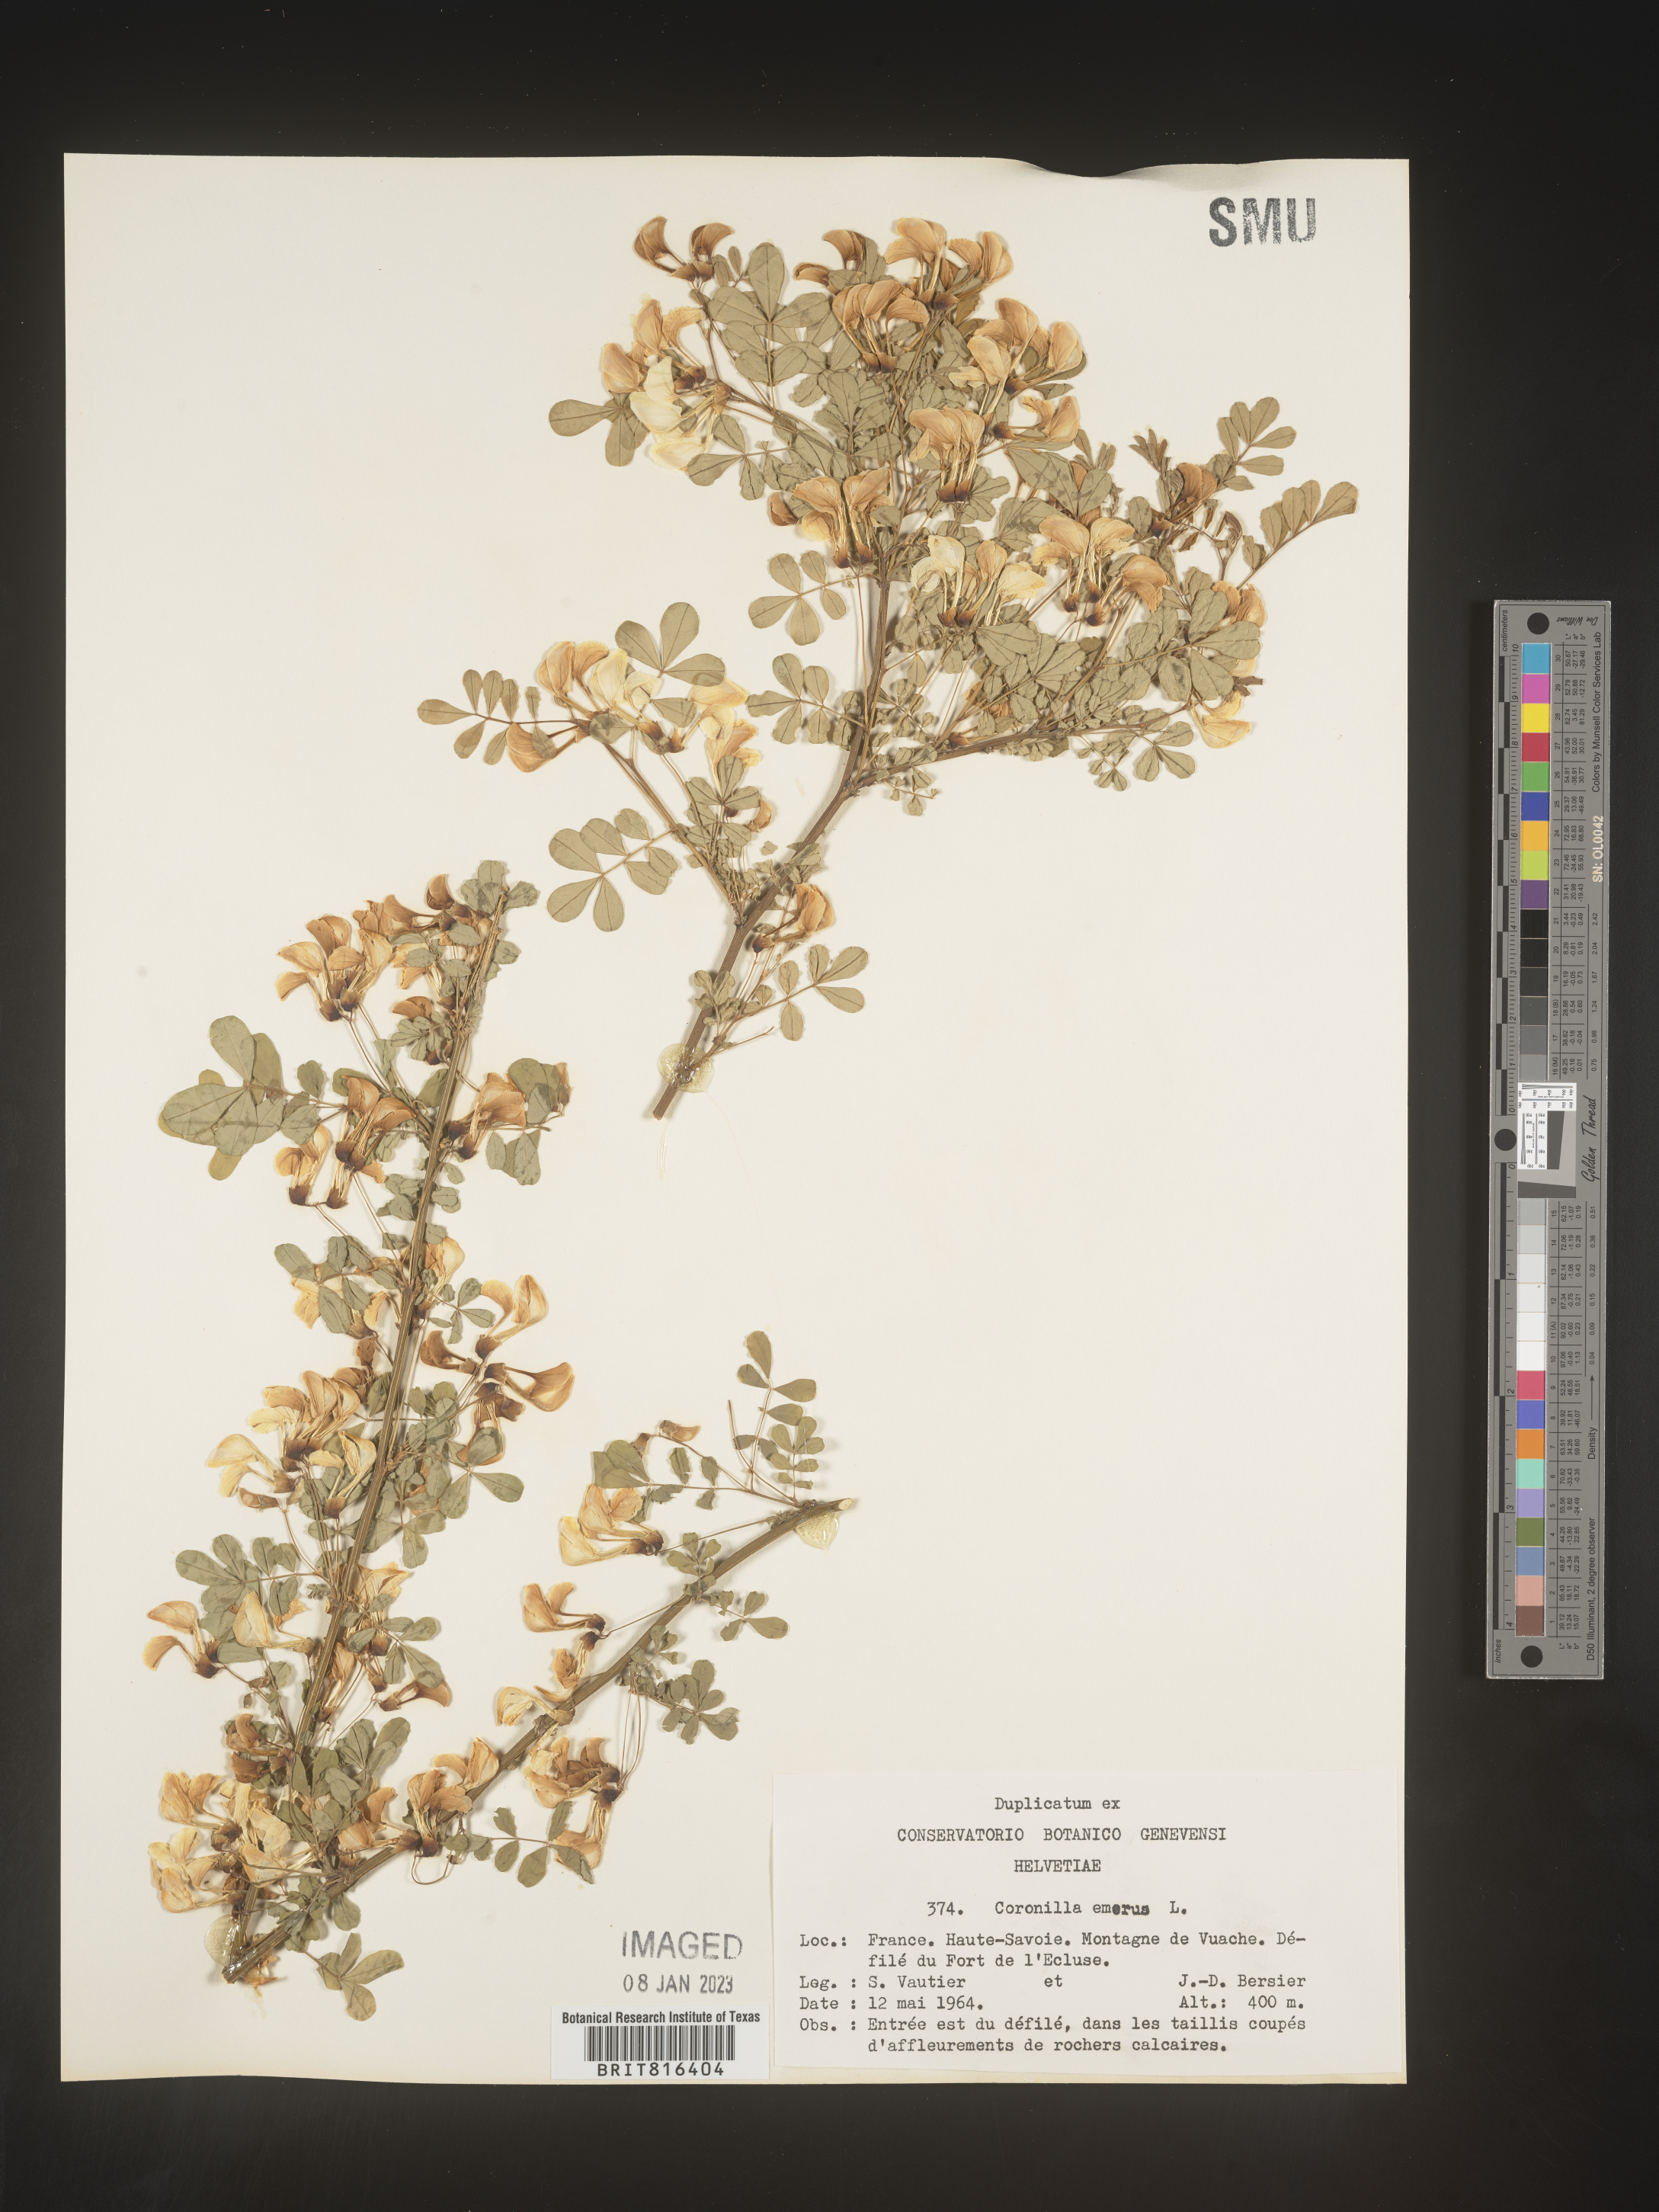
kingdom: Plantae
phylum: Tracheophyta
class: Magnoliopsida
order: Fabales
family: Fabaceae
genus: Coronilla
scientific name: Coronilla
